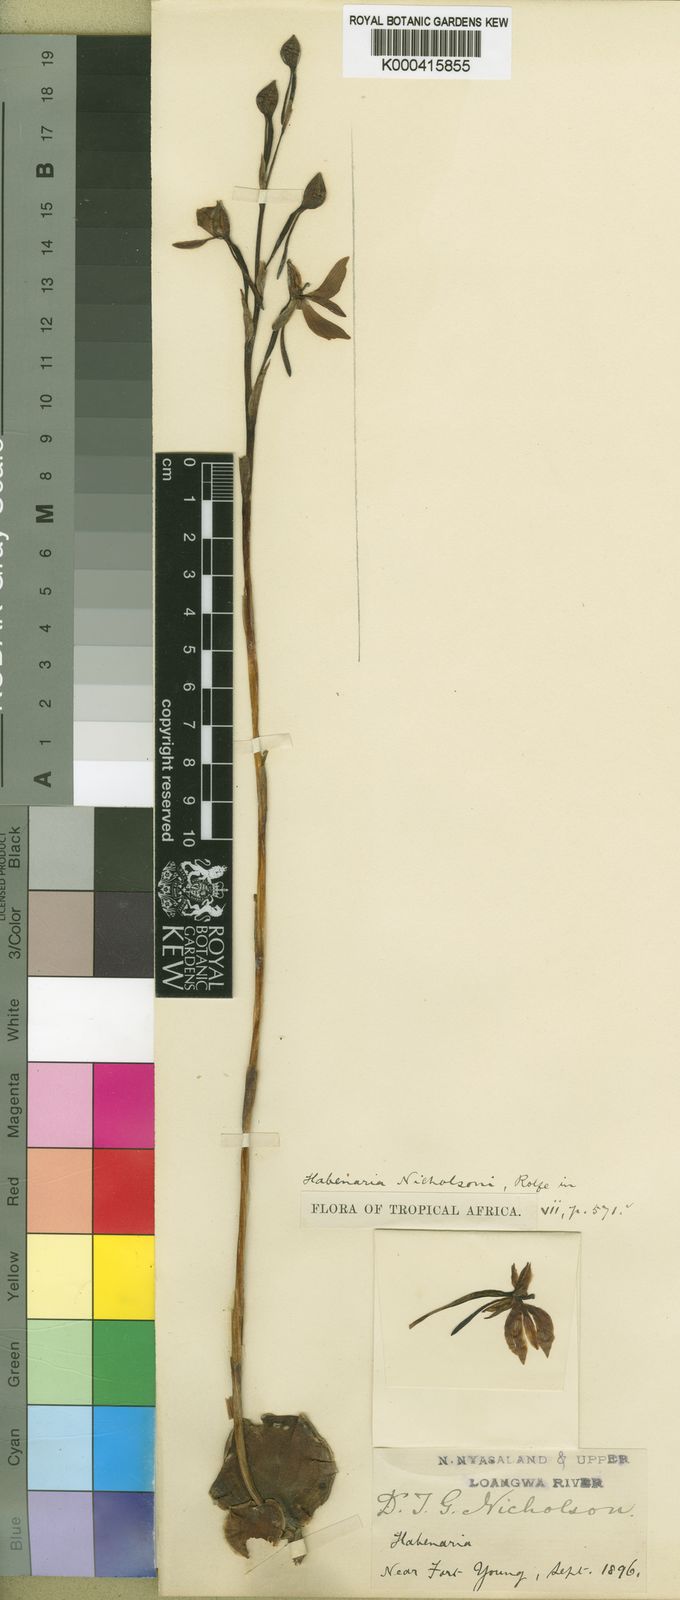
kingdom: Plantae
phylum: Tracheophyta
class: Liliopsida
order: Asparagales
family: Orchidaceae
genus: Habenaria
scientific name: Habenaria nicholsonii
